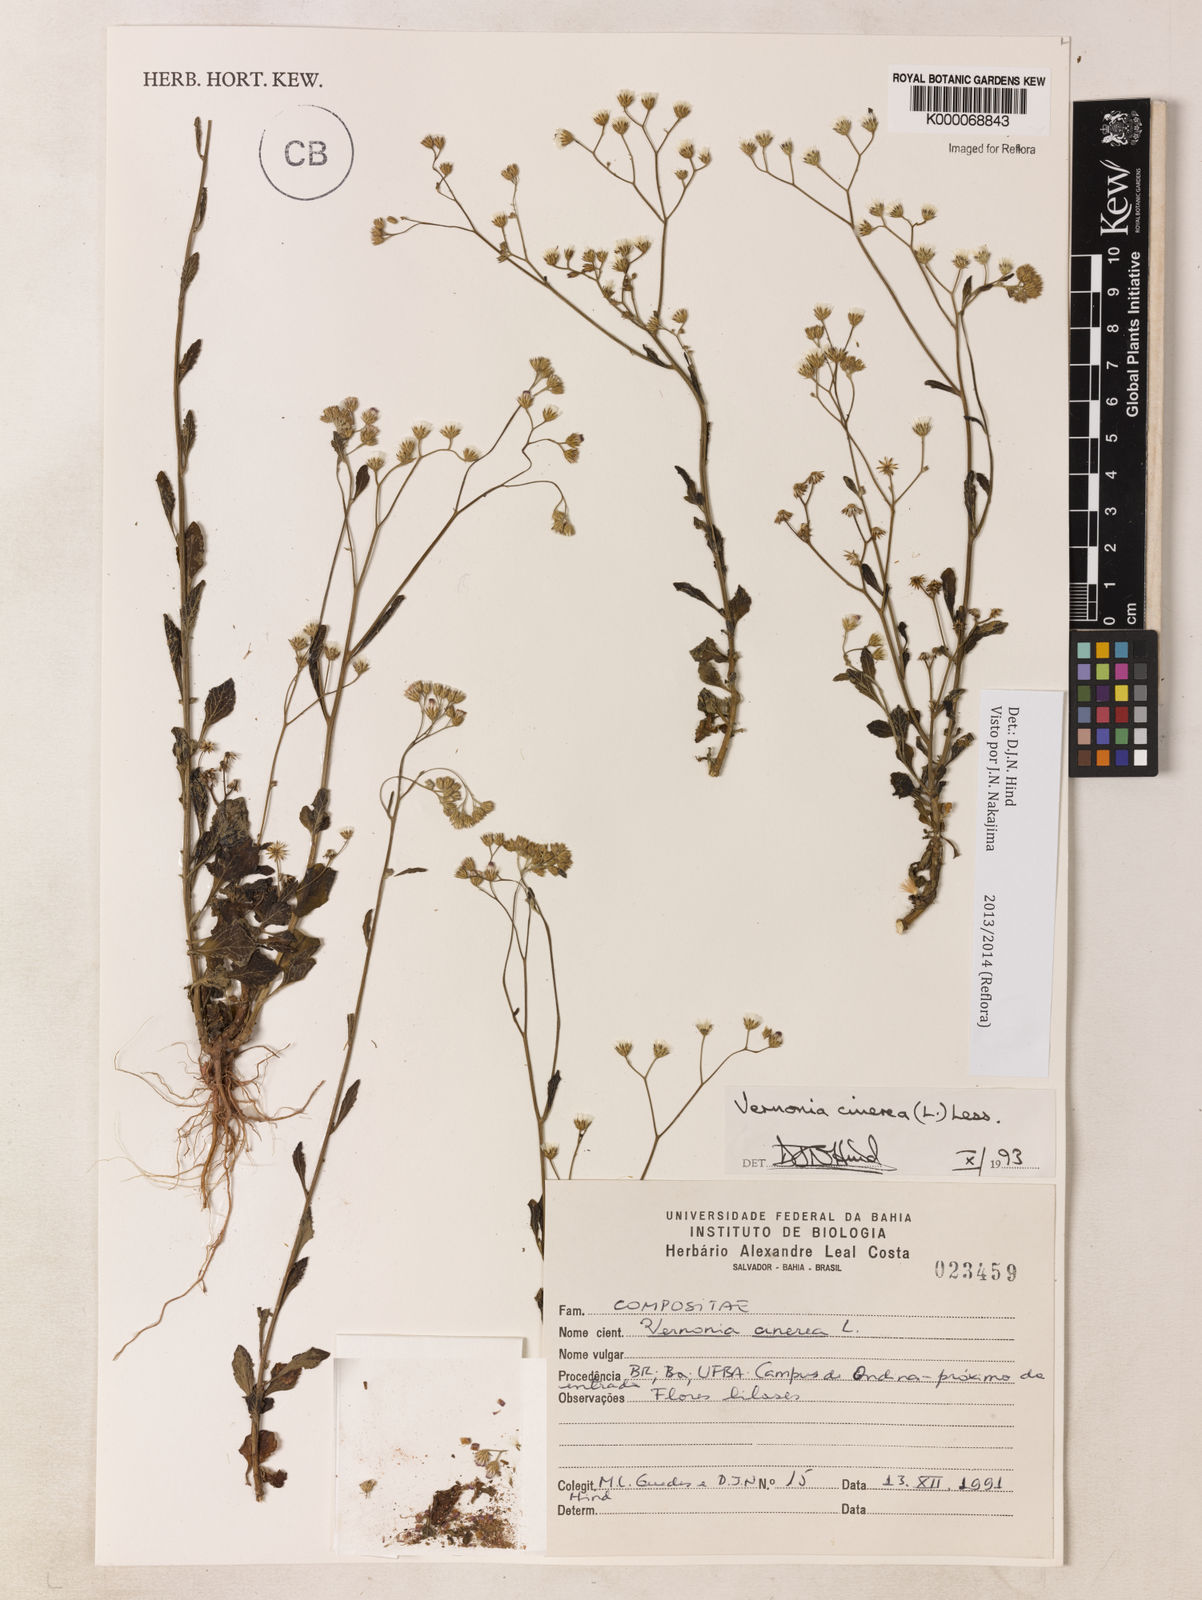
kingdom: Plantae
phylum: Tracheophyta
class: Magnoliopsida
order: Asterales
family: Asteraceae
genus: Cyanthillium
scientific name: Cyanthillium cinereum
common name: Little ironweed
